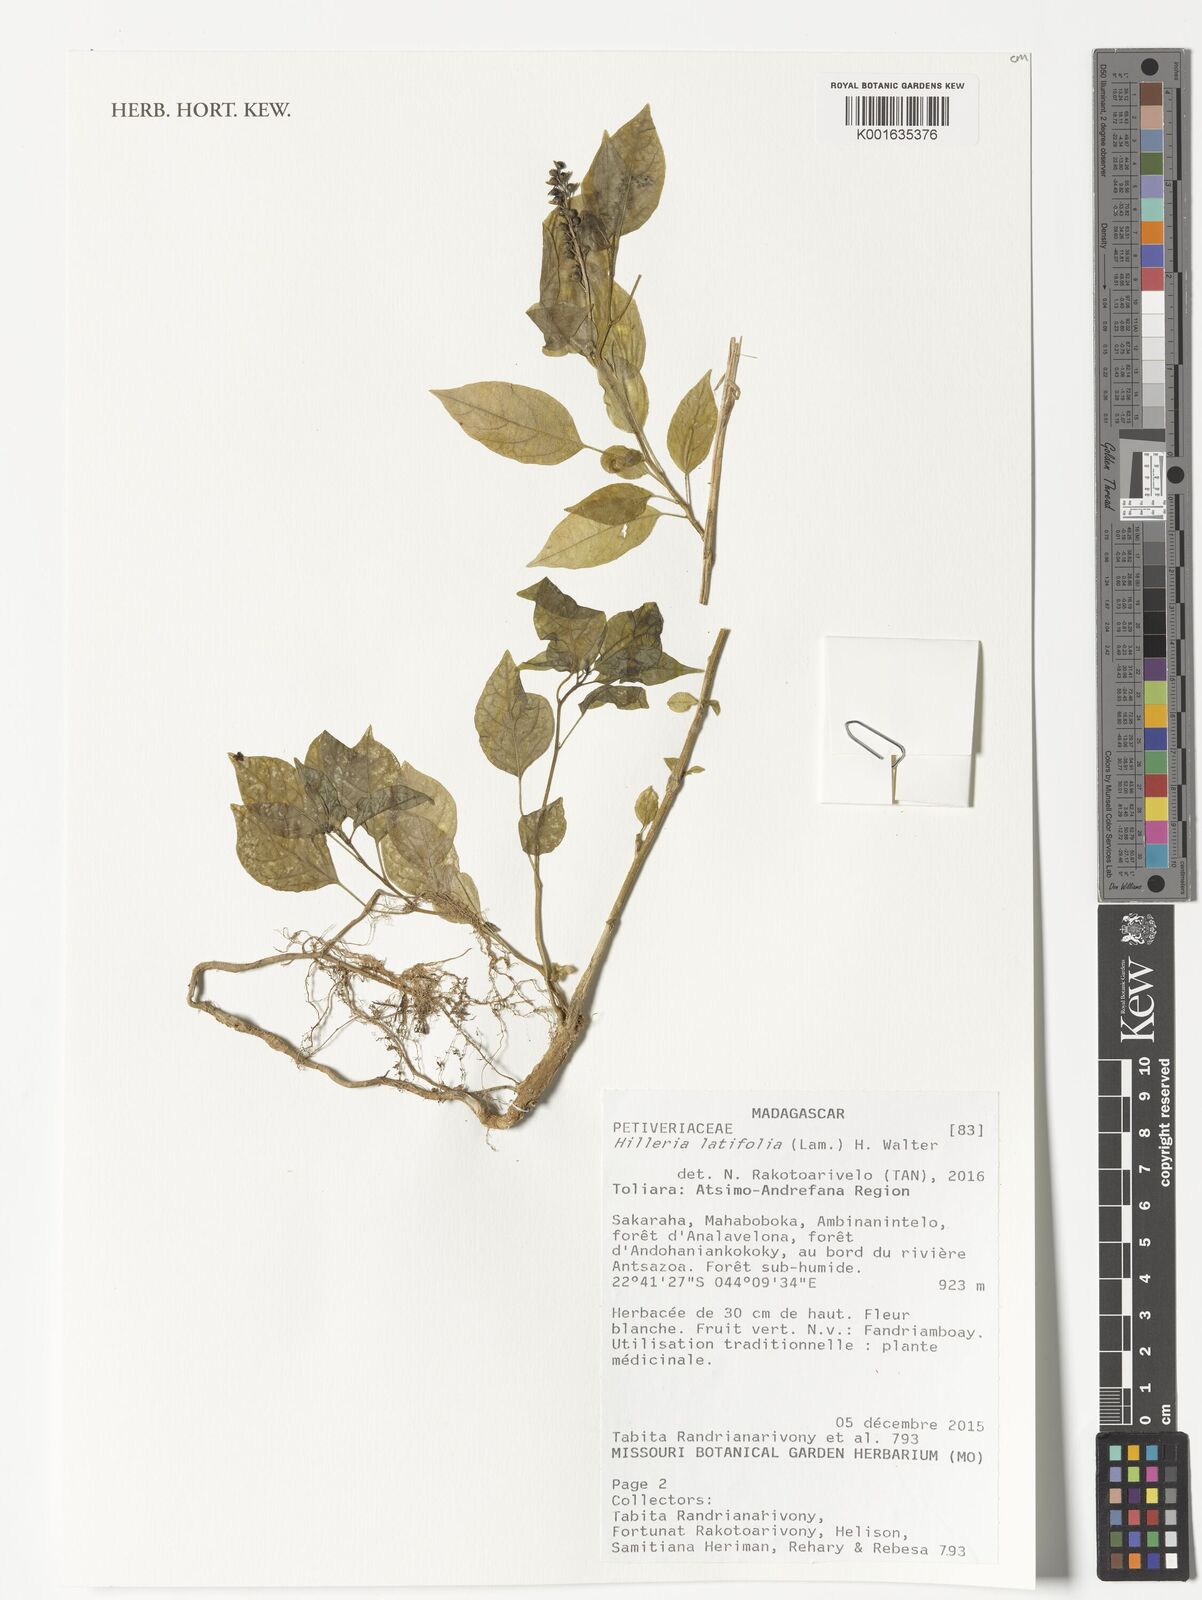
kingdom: Plantae
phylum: Tracheophyta
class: Magnoliopsida
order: Caryophyllales
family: Phytolaccaceae
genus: Hilleria
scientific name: Hilleria latifolia
